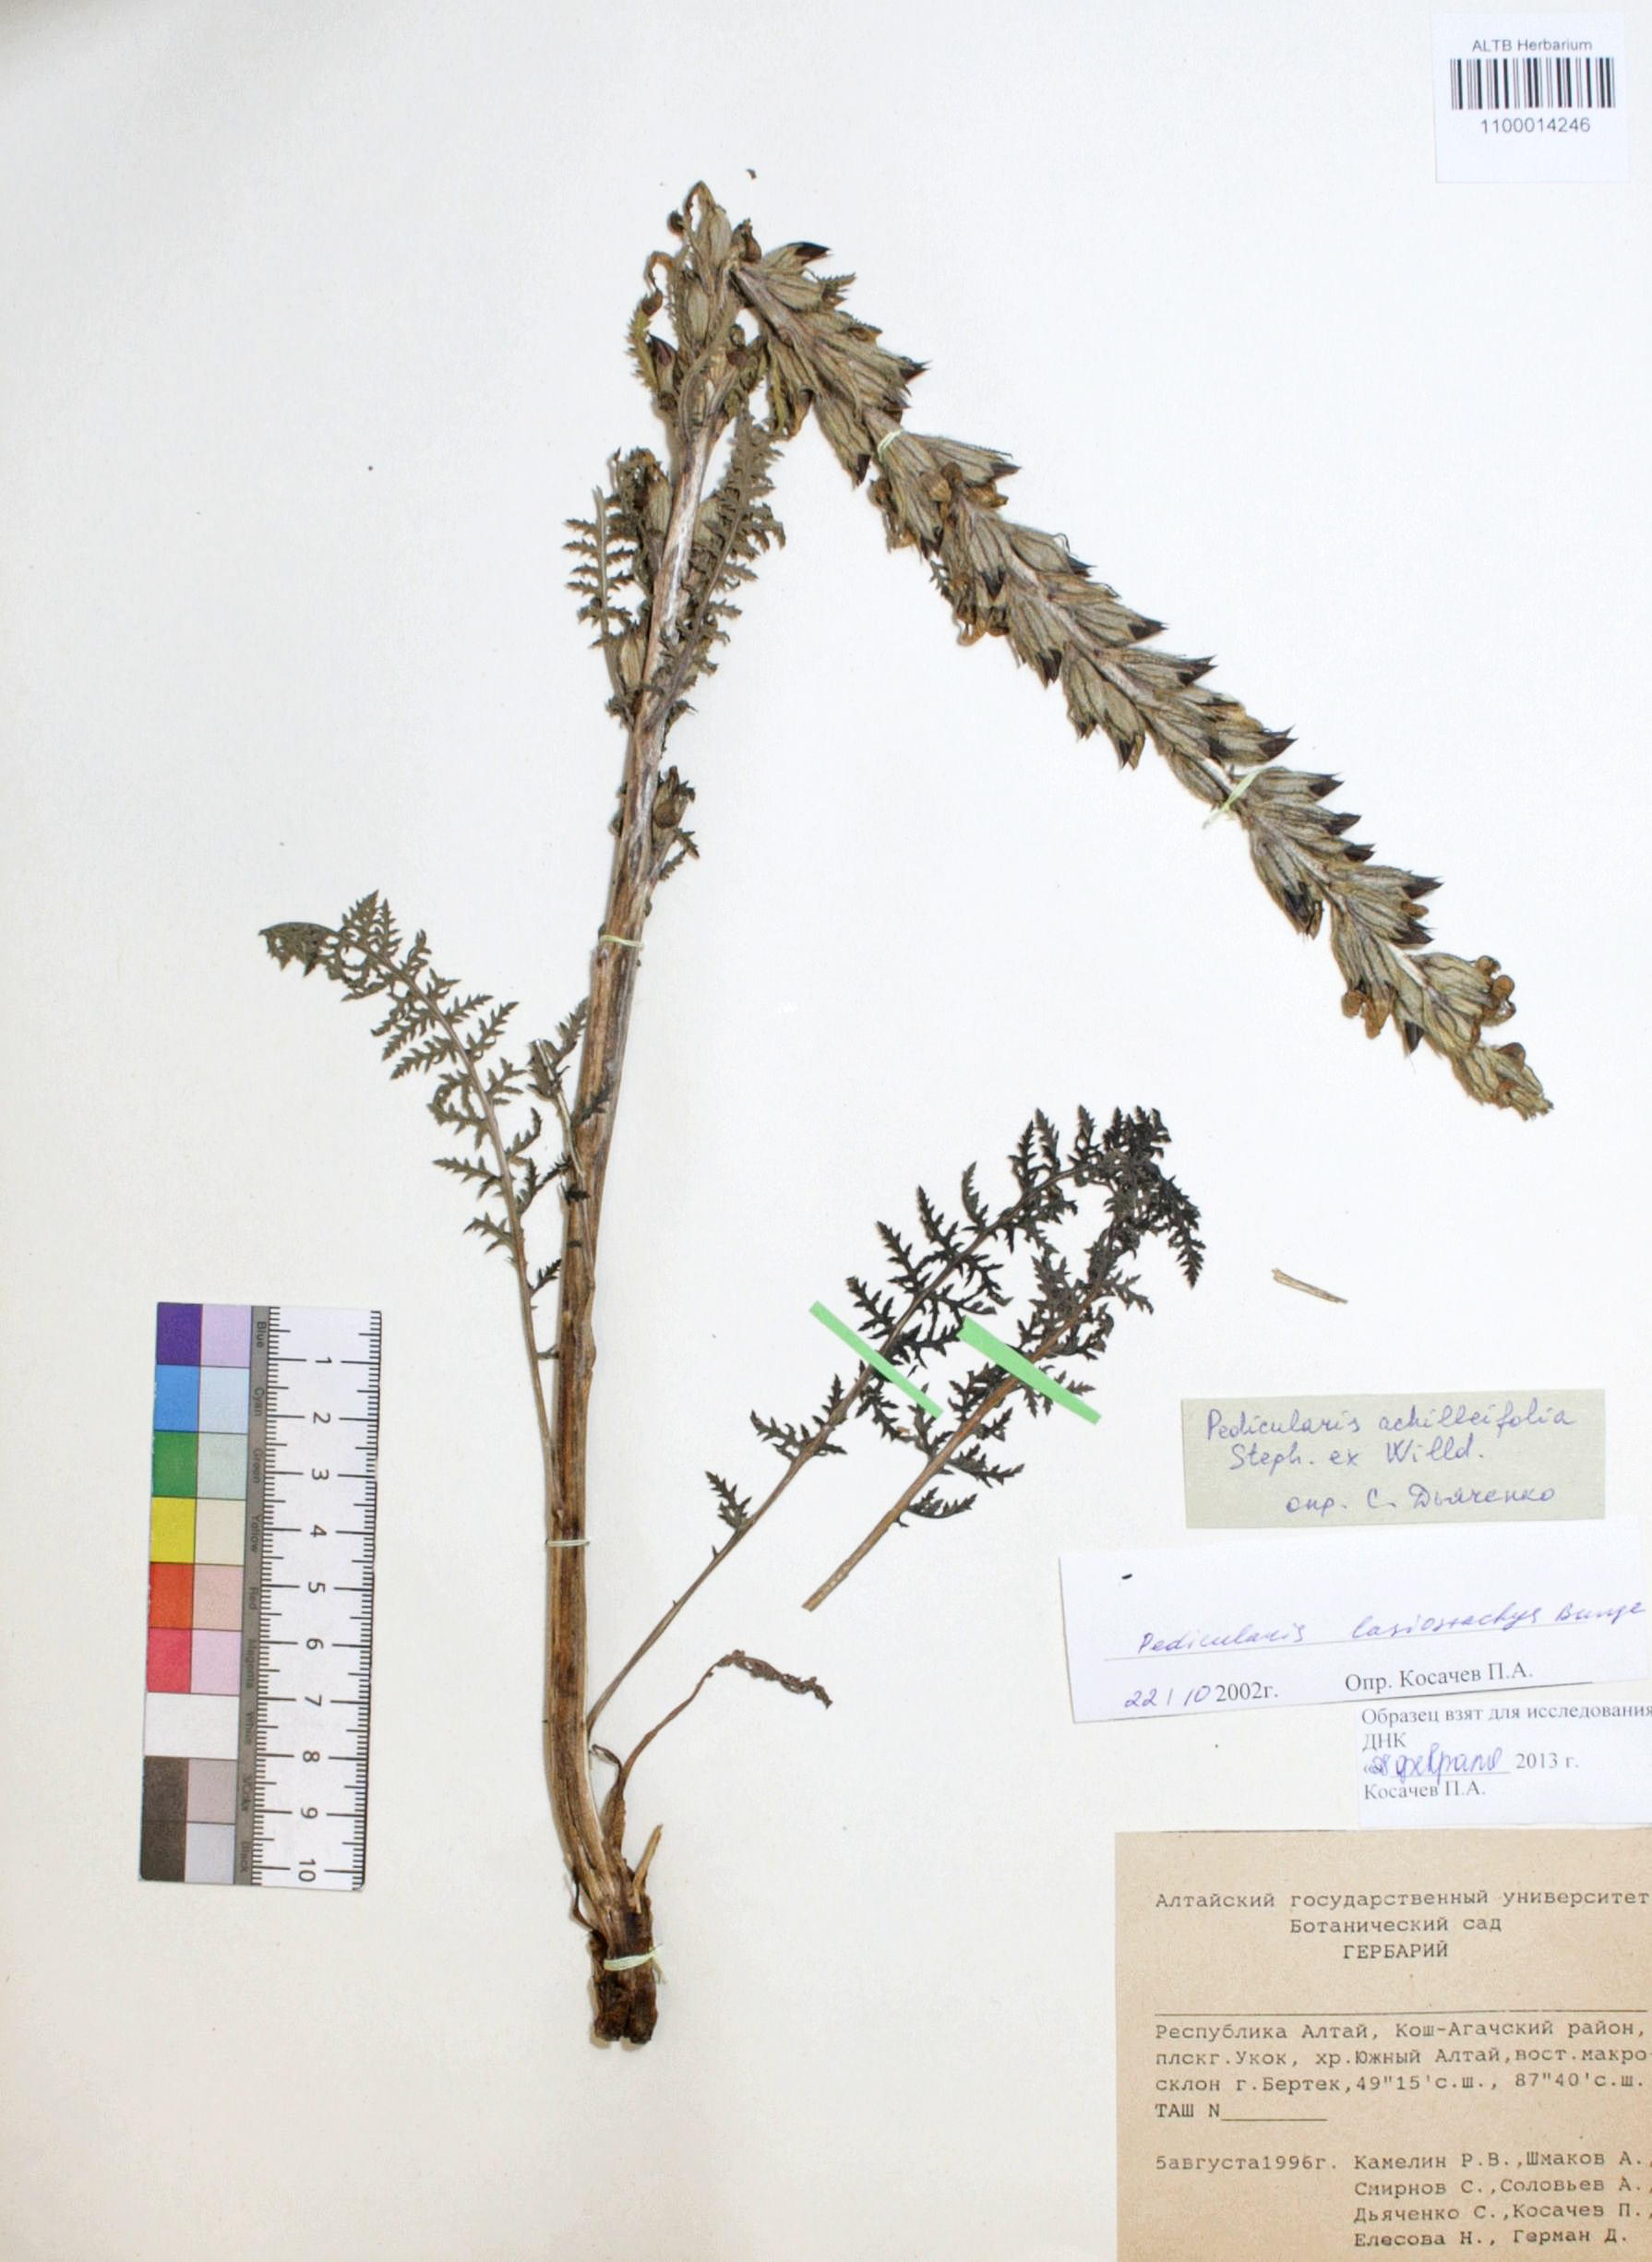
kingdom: Plantae
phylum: Tracheophyta
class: Magnoliopsida
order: Lamiales
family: Orobanchaceae
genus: Pedicularis
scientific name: Pedicularis lasiostachys
